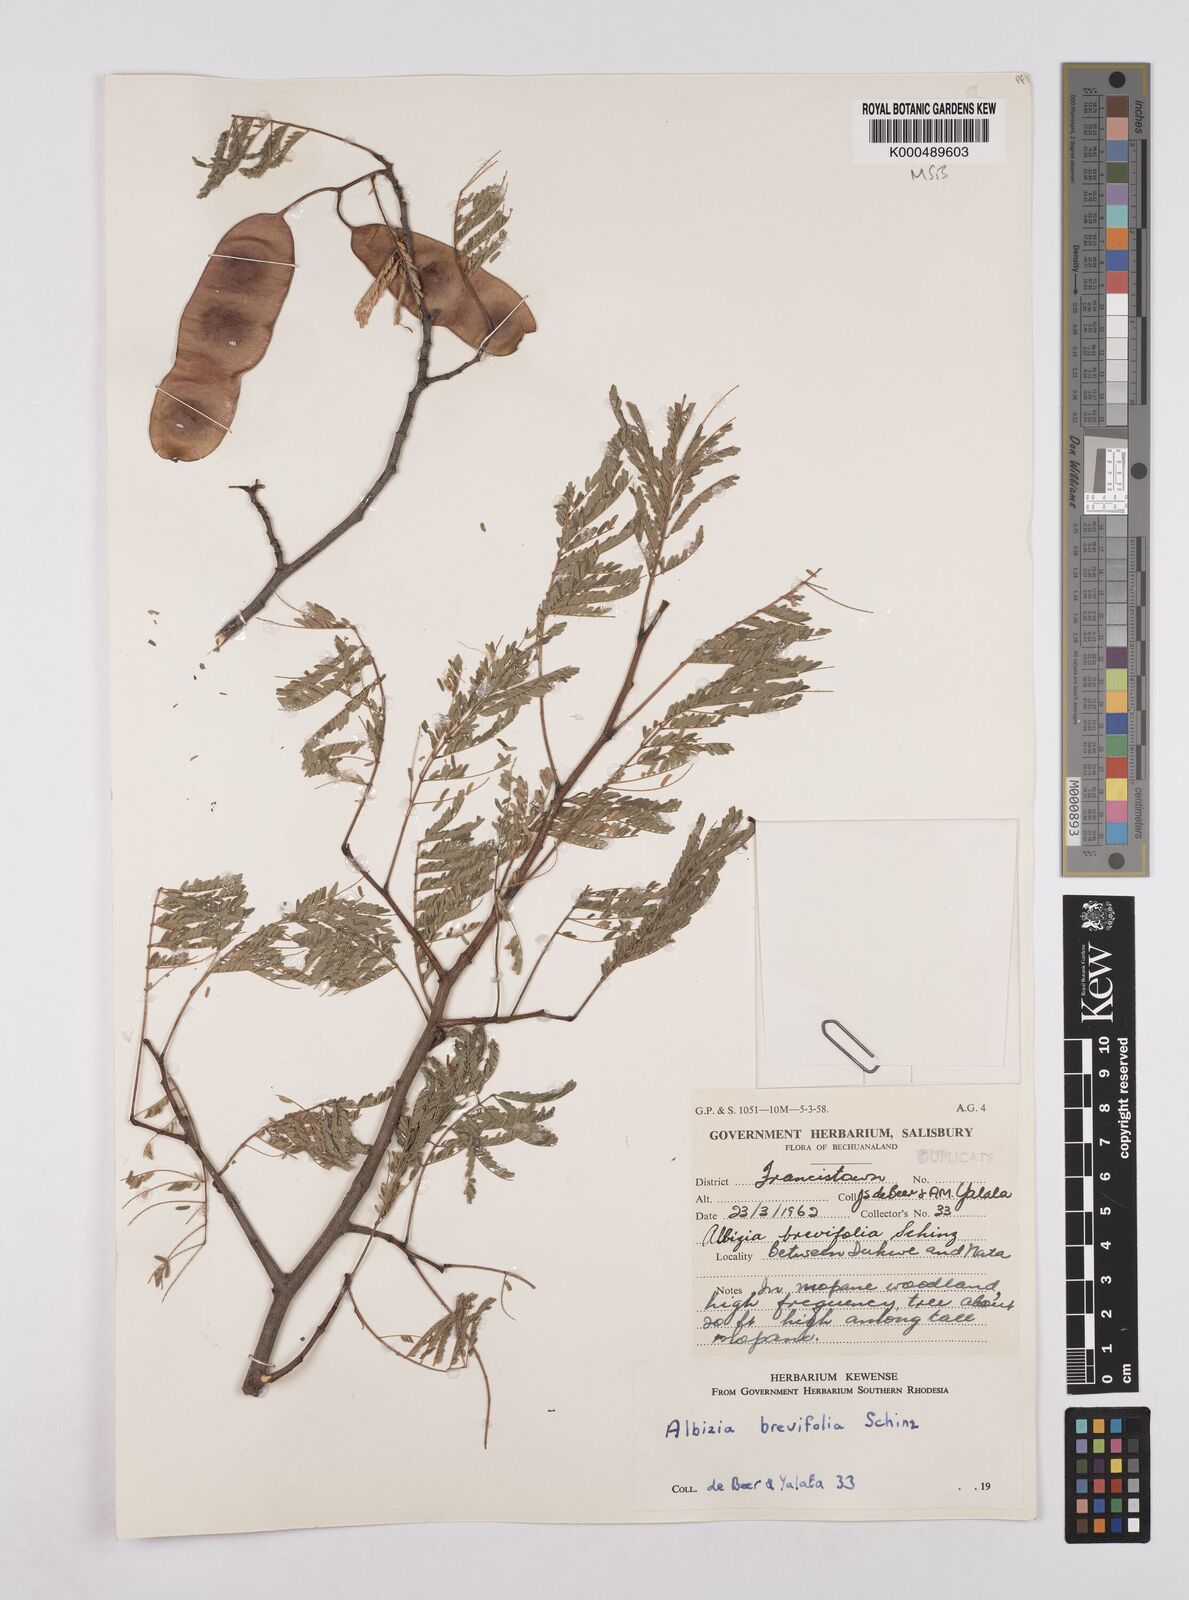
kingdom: Plantae
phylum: Tracheophyta
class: Magnoliopsida
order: Fabales
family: Fabaceae
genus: Albizia
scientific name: Albizia brevifolia
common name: Rock false-thorn
